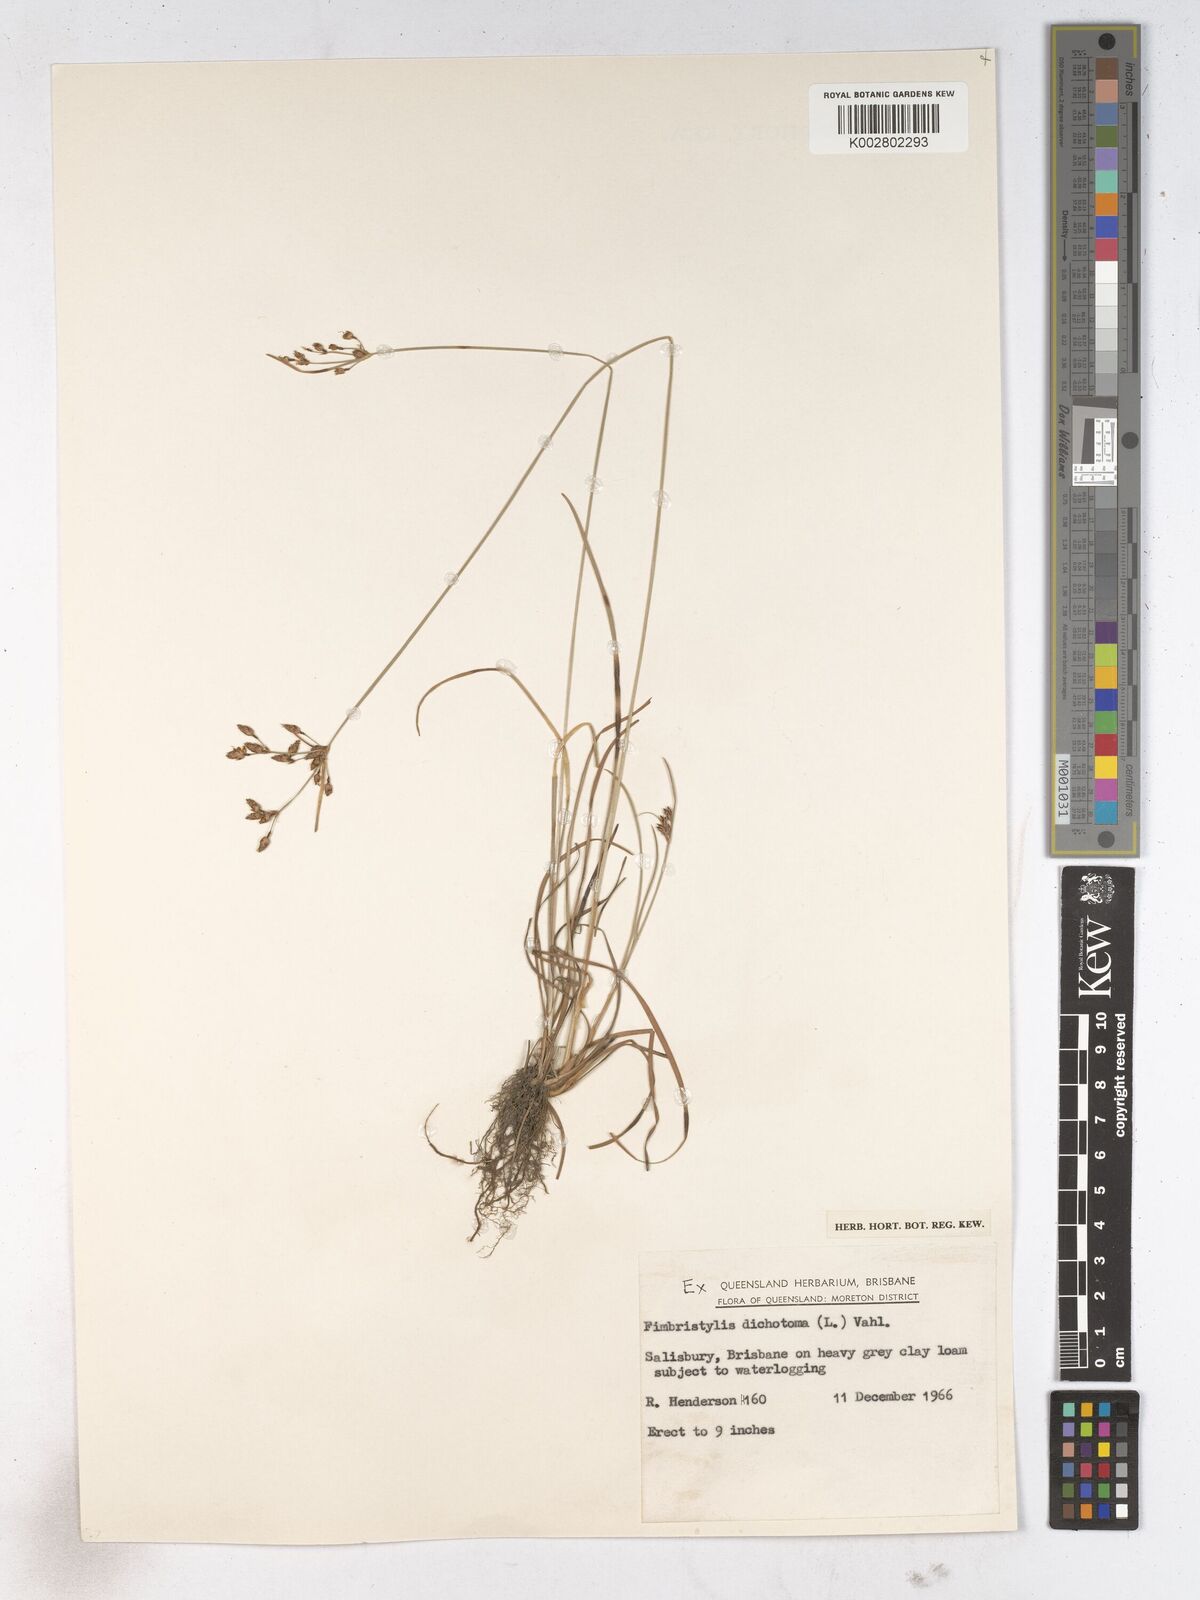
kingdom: Plantae
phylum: Tracheophyta
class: Liliopsida
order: Poales
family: Cyperaceae
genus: Fimbristylis
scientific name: Fimbristylis dichotoma
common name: Forked fimbry
